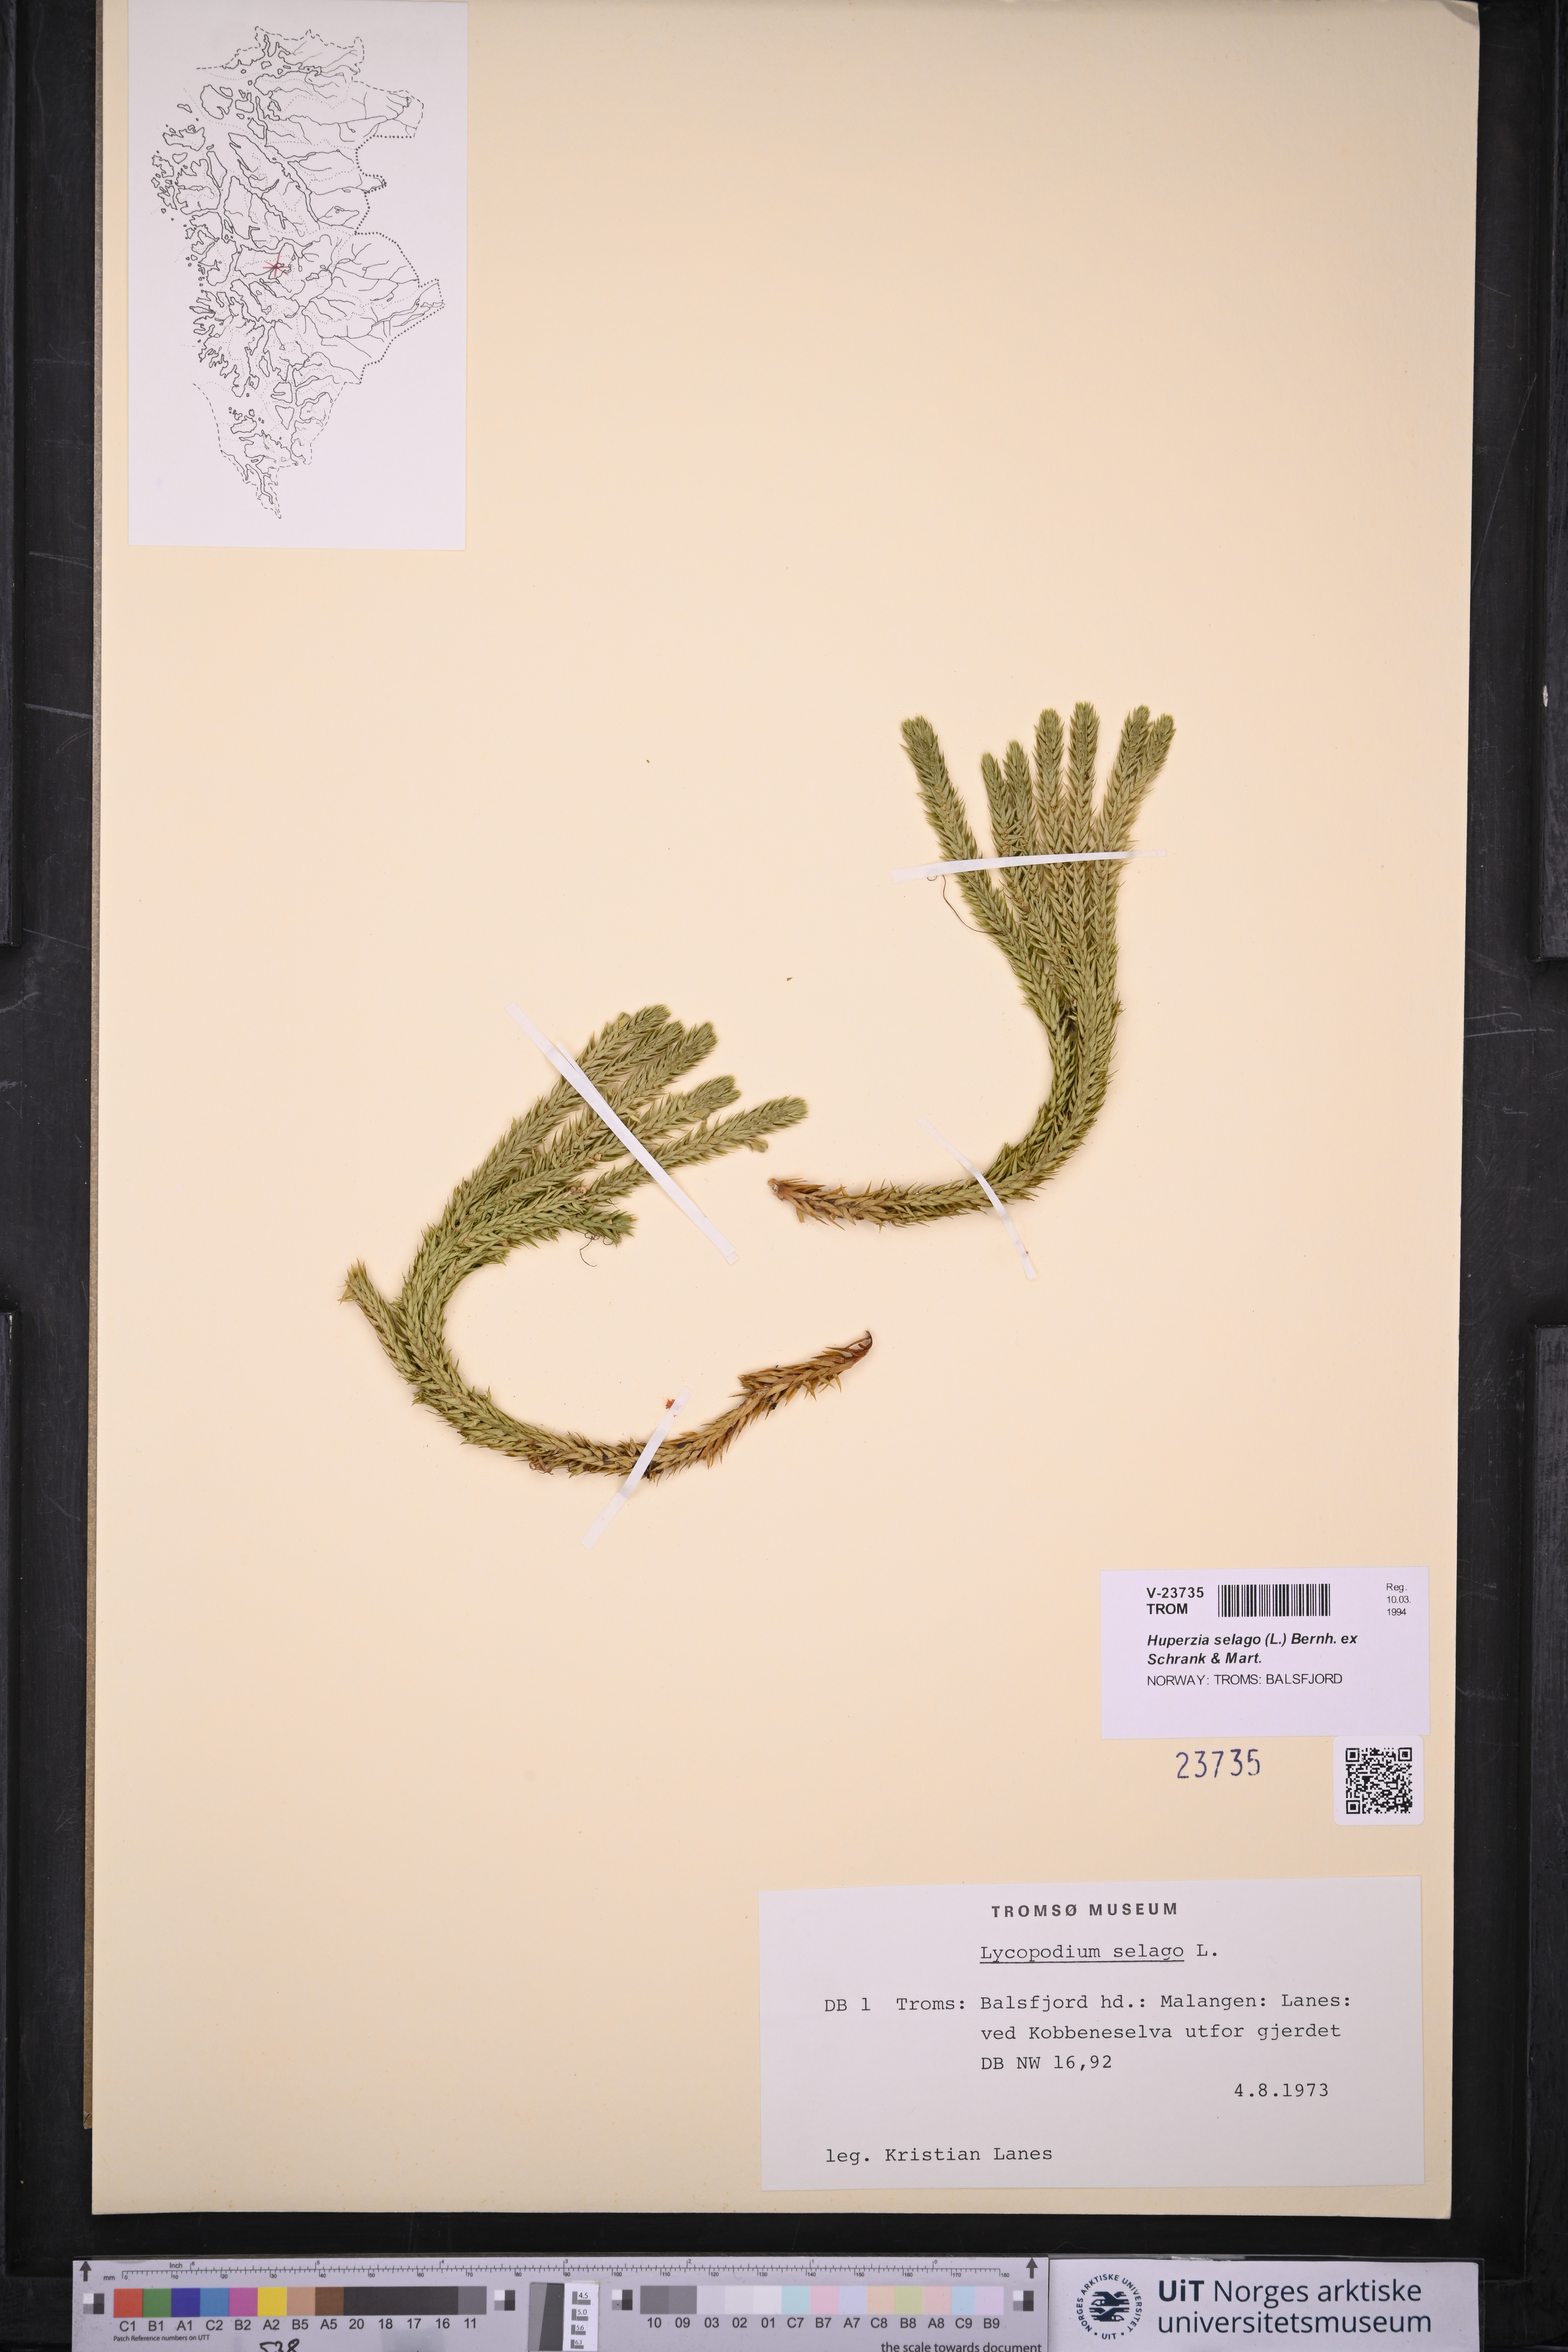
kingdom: Plantae
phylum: Tracheophyta
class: Lycopodiopsida
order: Lycopodiales
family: Lycopodiaceae
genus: Huperzia
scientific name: Huperzia selago
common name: Northern firmoss
